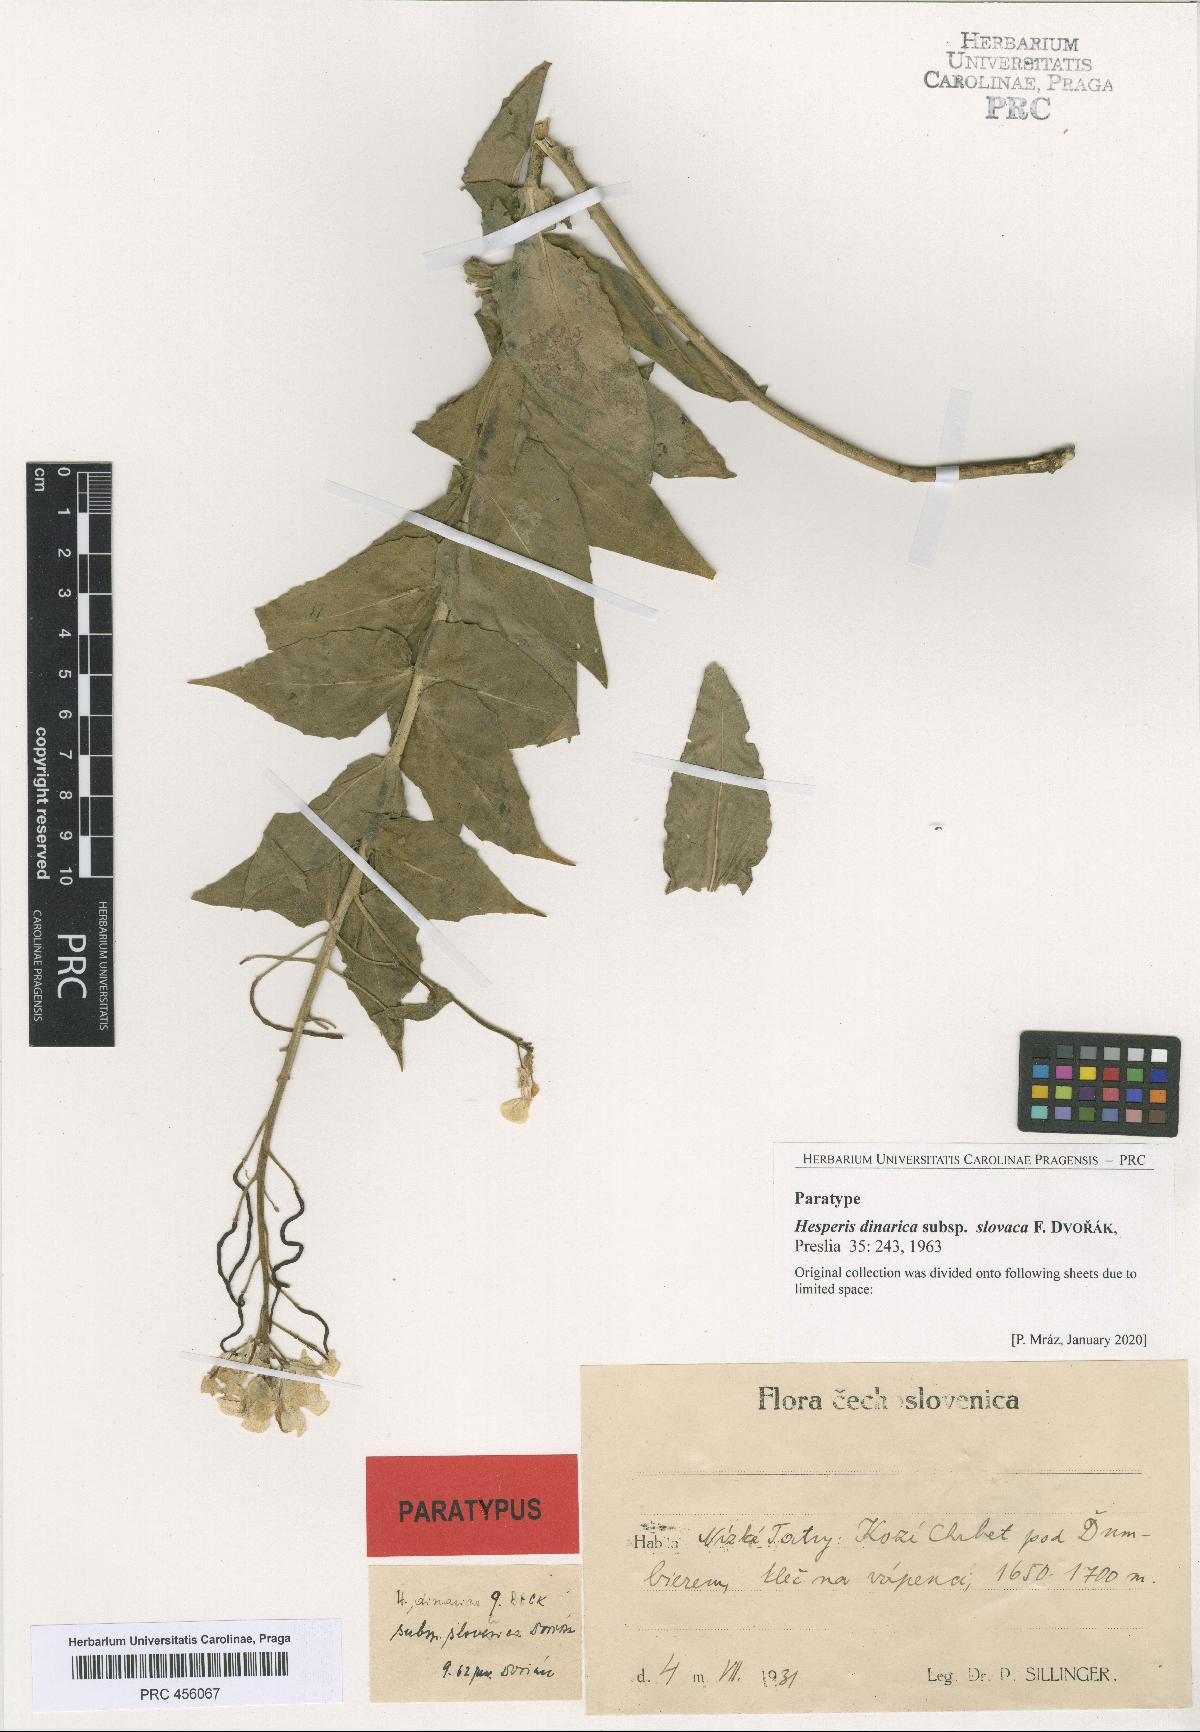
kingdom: Plantae
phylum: Tracheophyta
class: Magnoliopsida
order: Brassicales
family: Brassicaceae
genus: Hesperis
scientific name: Hesperis dinarica
